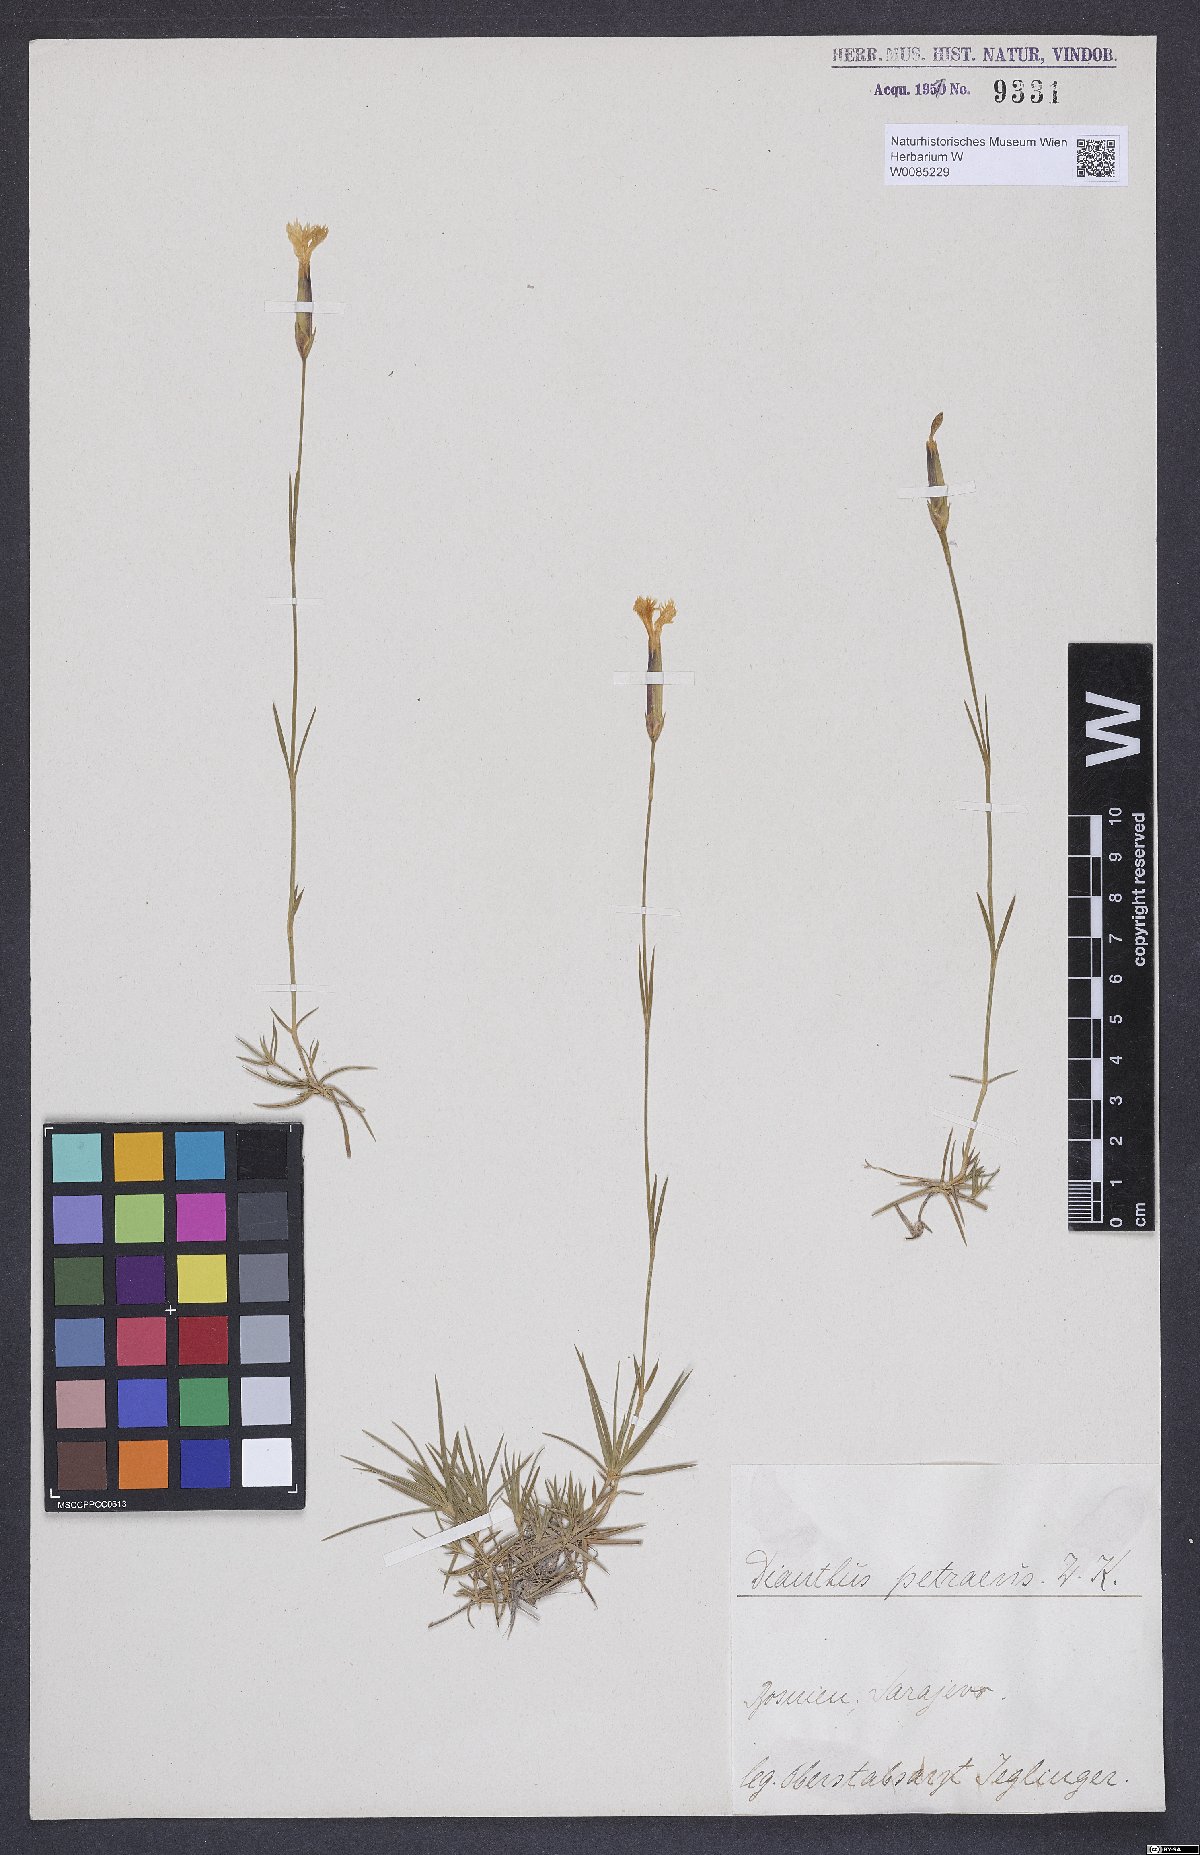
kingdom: Plantae
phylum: Tracheophyta
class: Magnoliopsida
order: Caryophyllales
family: Caryophyllaceae
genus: Dianthus
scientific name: Dianthus petraeus
